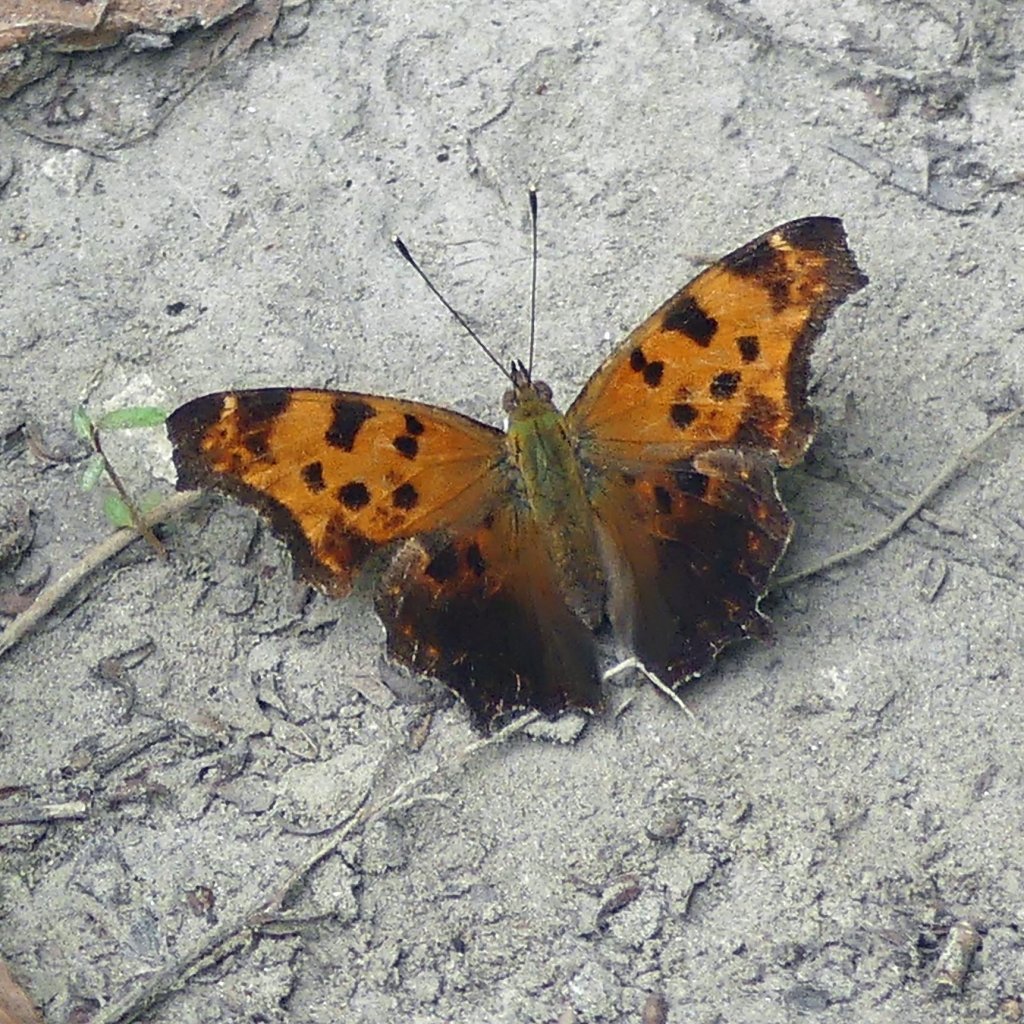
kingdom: Animalia
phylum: Arthropoda
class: Insecta
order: Lepidoptera
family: Nymphalidae
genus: Polygonia
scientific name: Polygonia comma
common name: Eastern Comma
